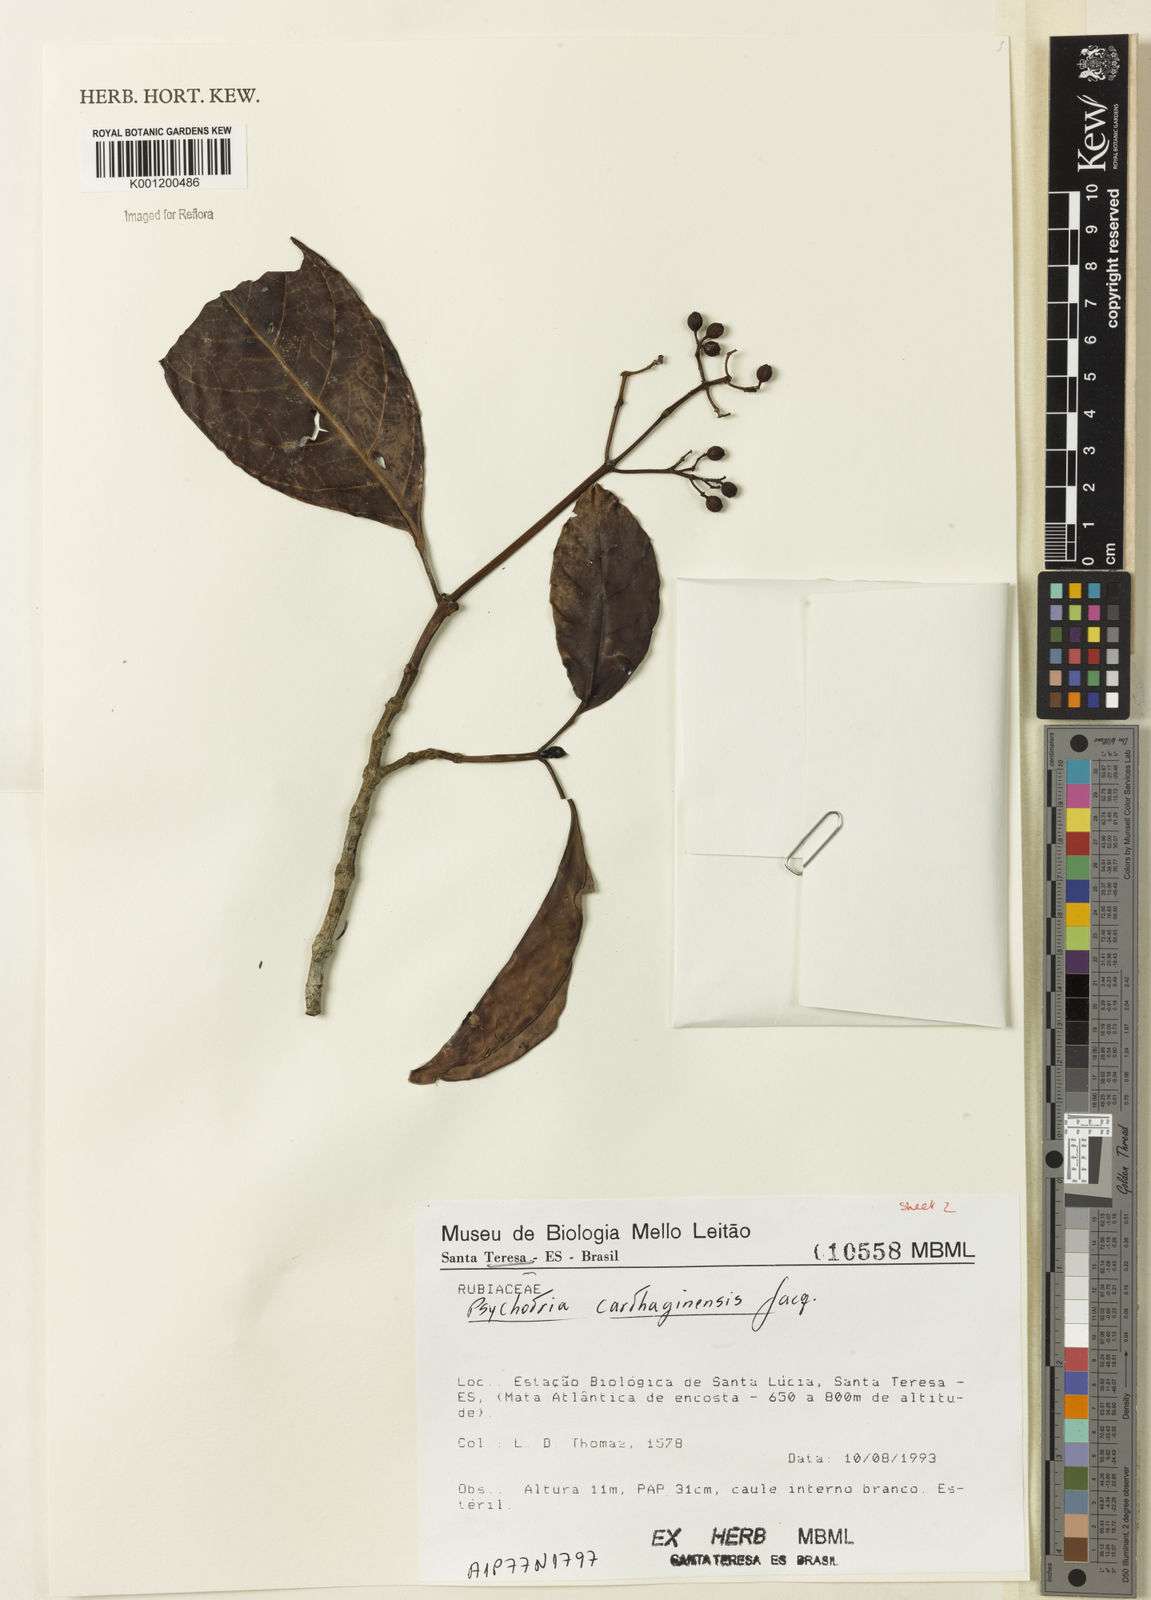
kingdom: Plantae
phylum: Tracheophyta
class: Magnoliopsida
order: Gentianales
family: Rubiaceae
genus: Psychotria
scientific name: Psychotria carthagenensis
